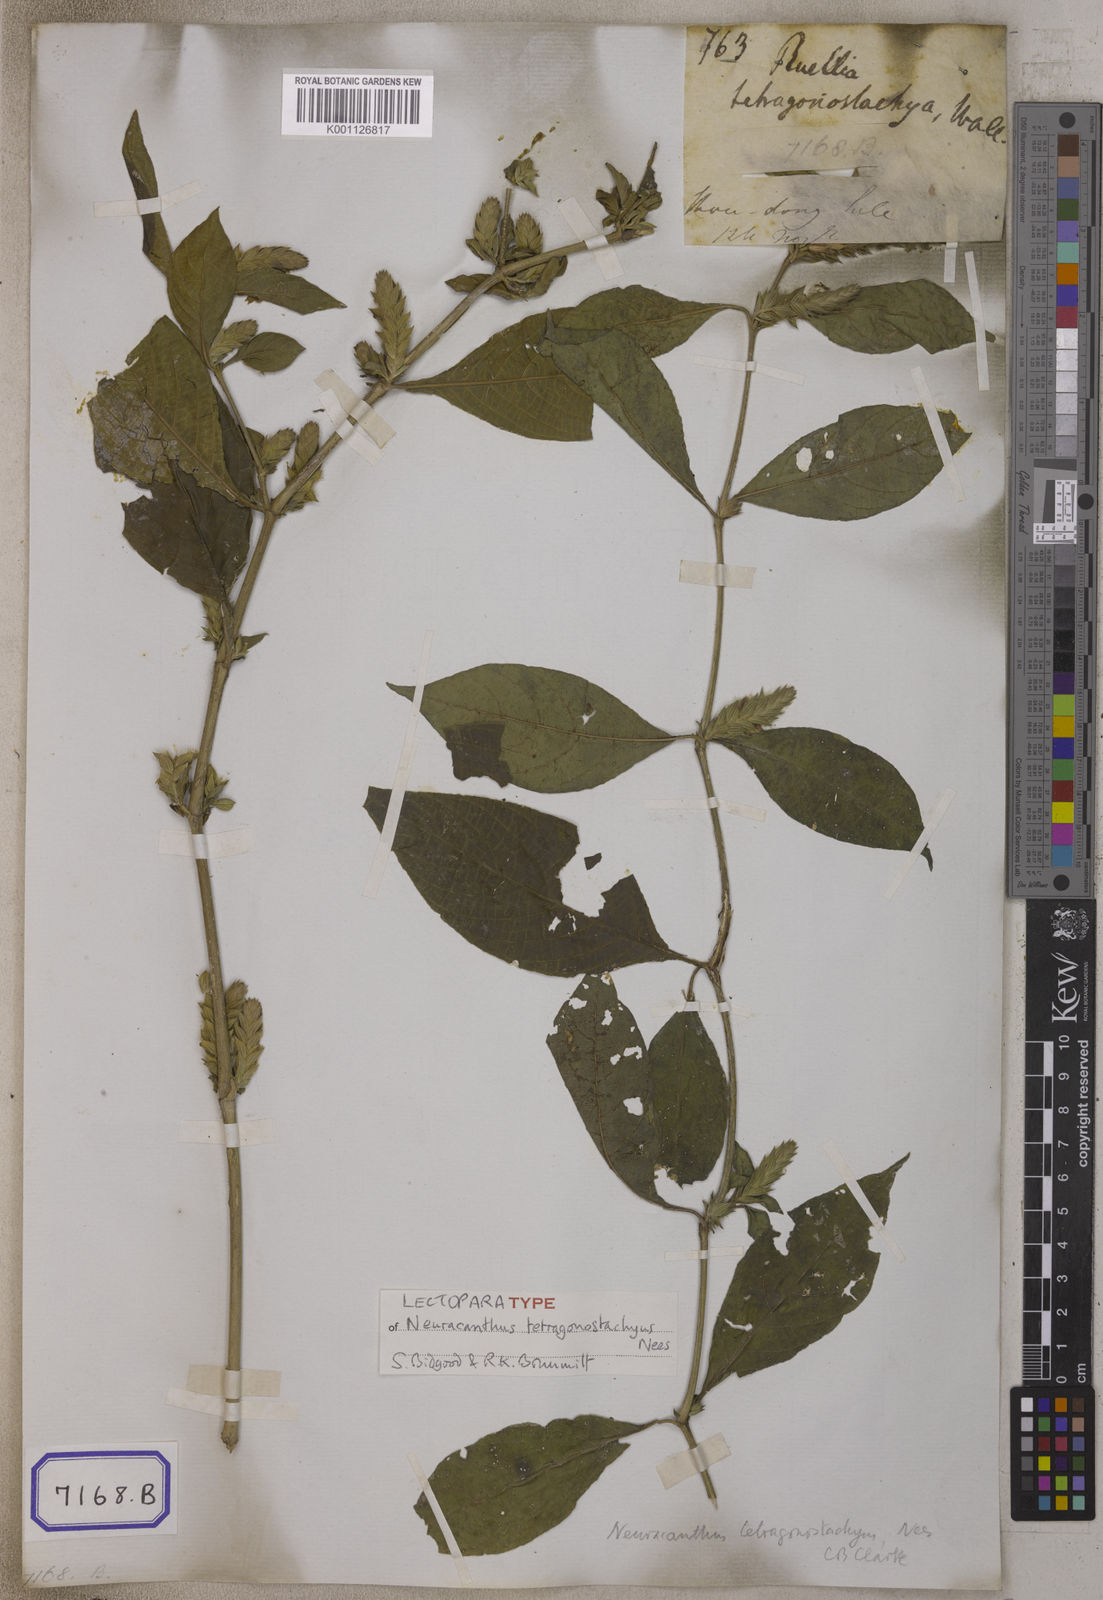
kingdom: Plantae
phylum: Tracheophyta
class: Magnoliopsida
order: Lamiales
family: Acanthaceae
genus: Neuracanthus
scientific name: Neuracanthus
